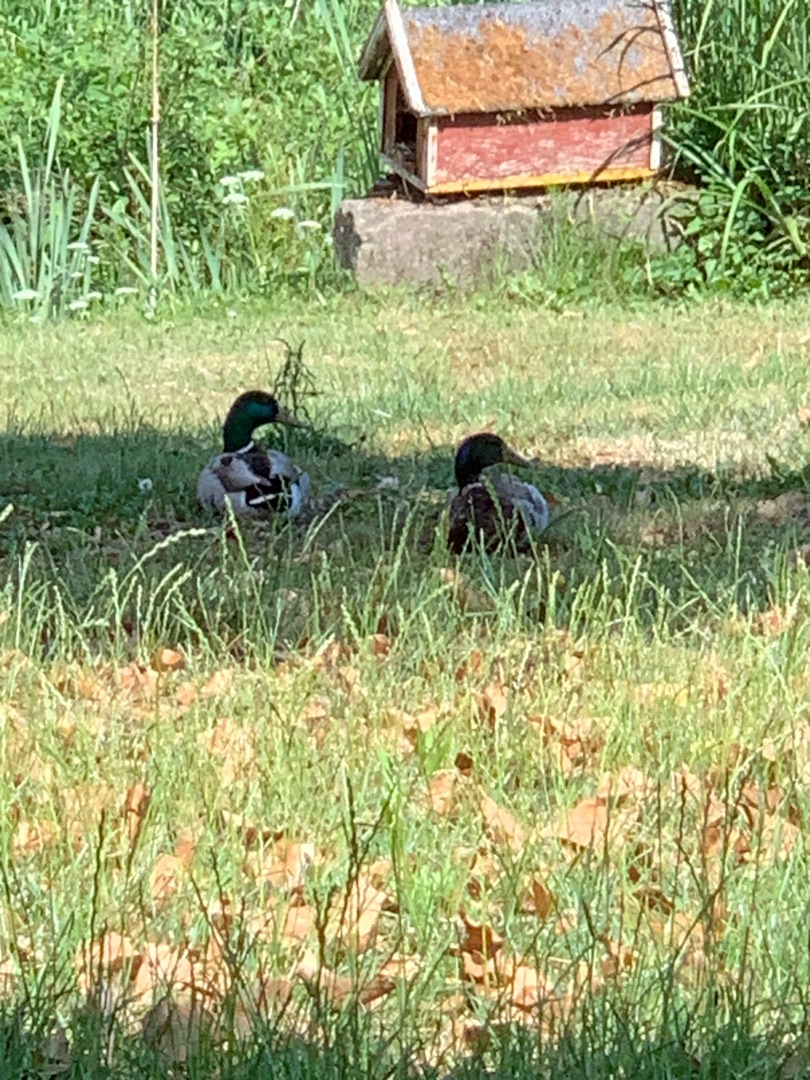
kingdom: Animalia
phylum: Chordata
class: Aves
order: Anseriformes
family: Anatidae
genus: Anas
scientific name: Anas platyrhynchos
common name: Gråand
